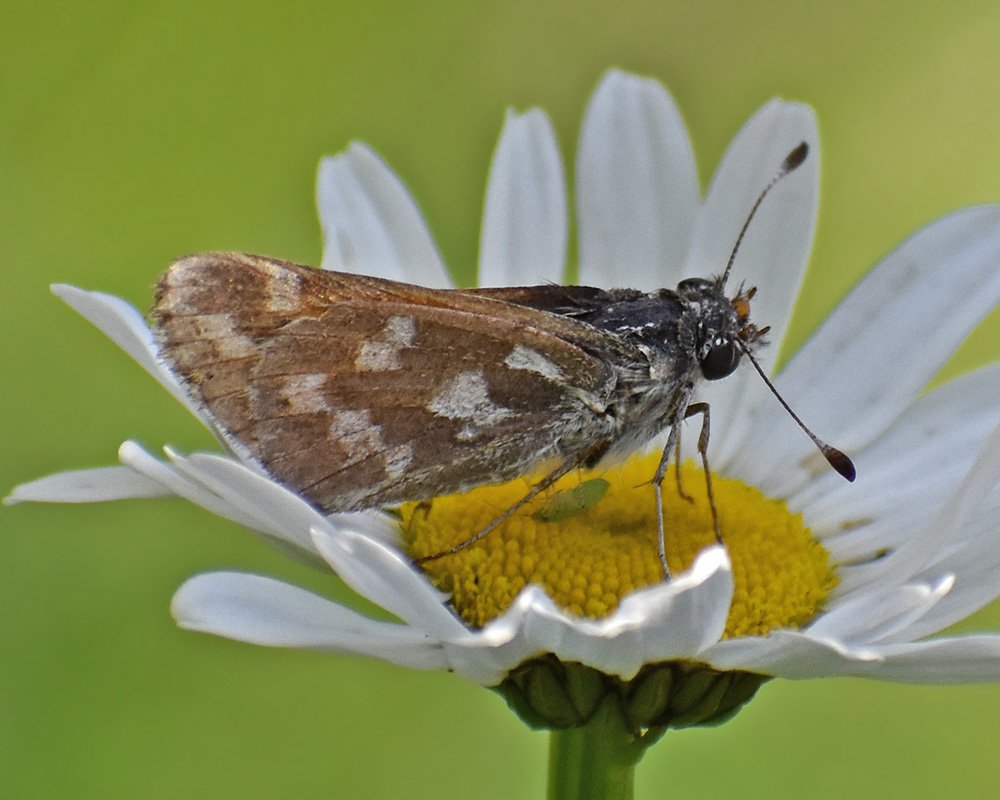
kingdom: Animalia
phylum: Arthropoda
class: Insecta
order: Lepidoptera
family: Hesperiidae
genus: Hesperia
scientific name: Hesperia juba
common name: Juba Skipper
